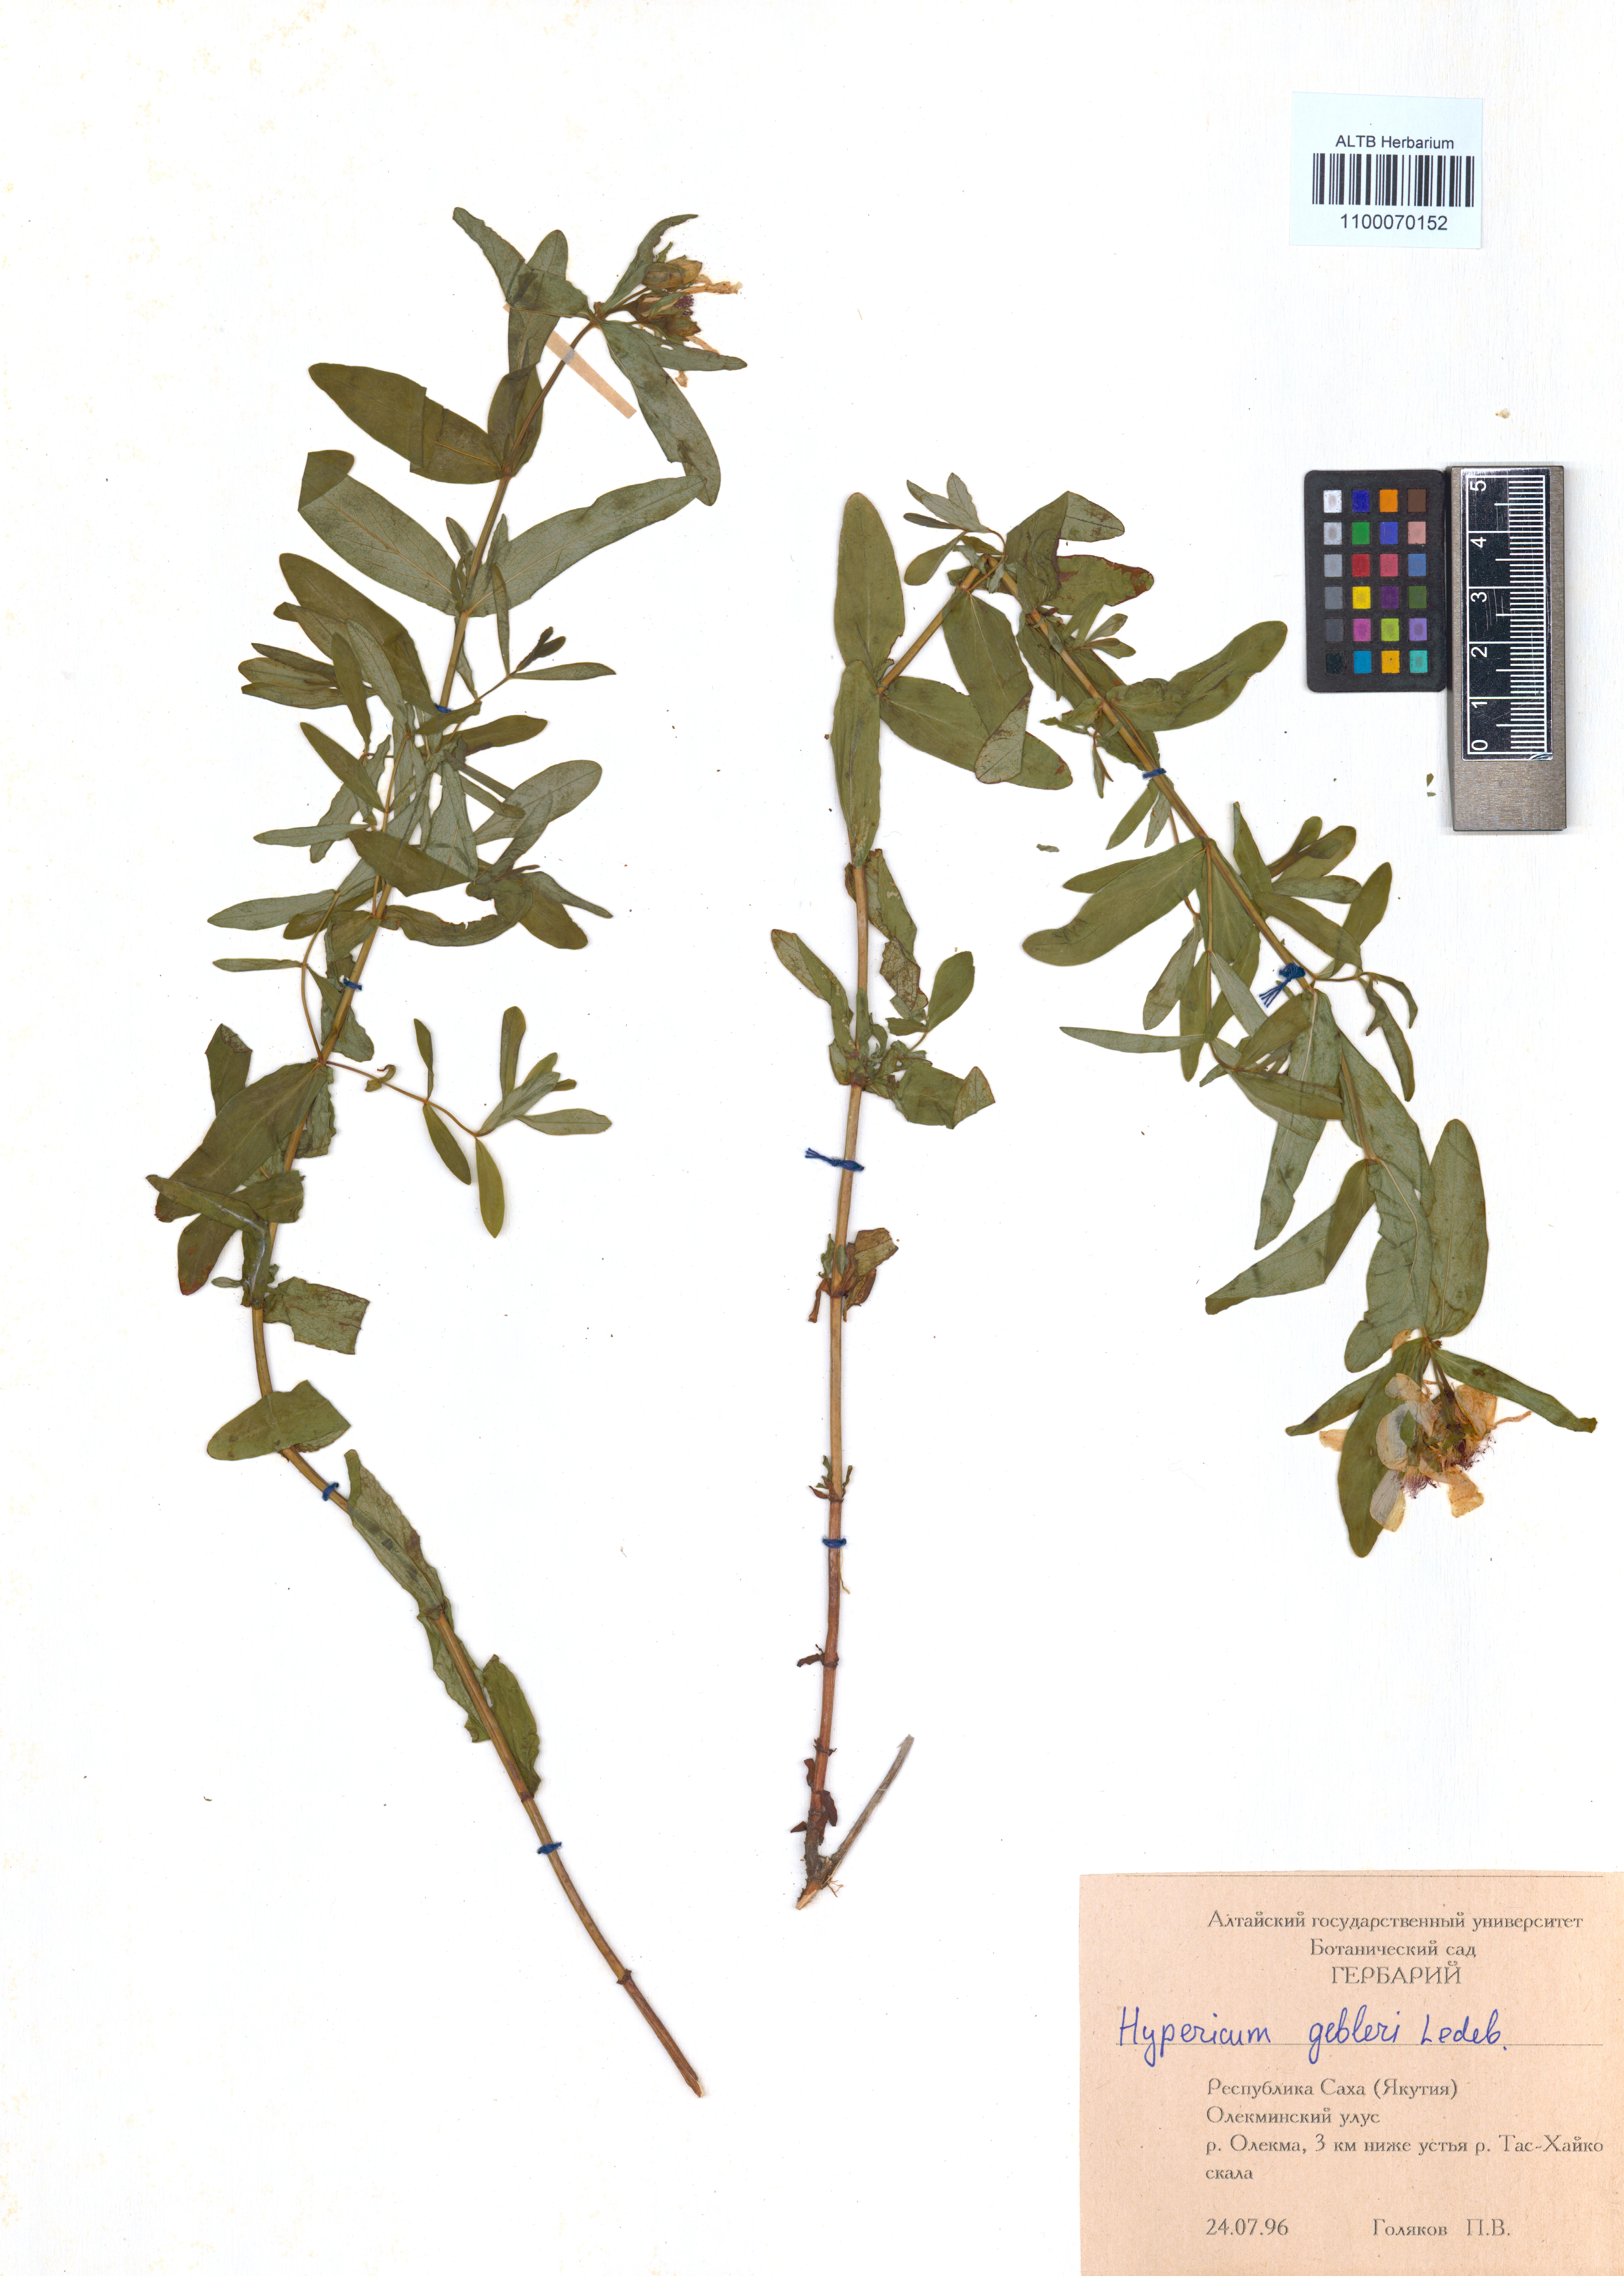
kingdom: Plantae
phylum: Tracheophyta
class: Magnoliopsida
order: Malpighiales
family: Hypericaceae
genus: Hypericum
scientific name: Hypericum ascyron
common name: Giant st. john's-wort
